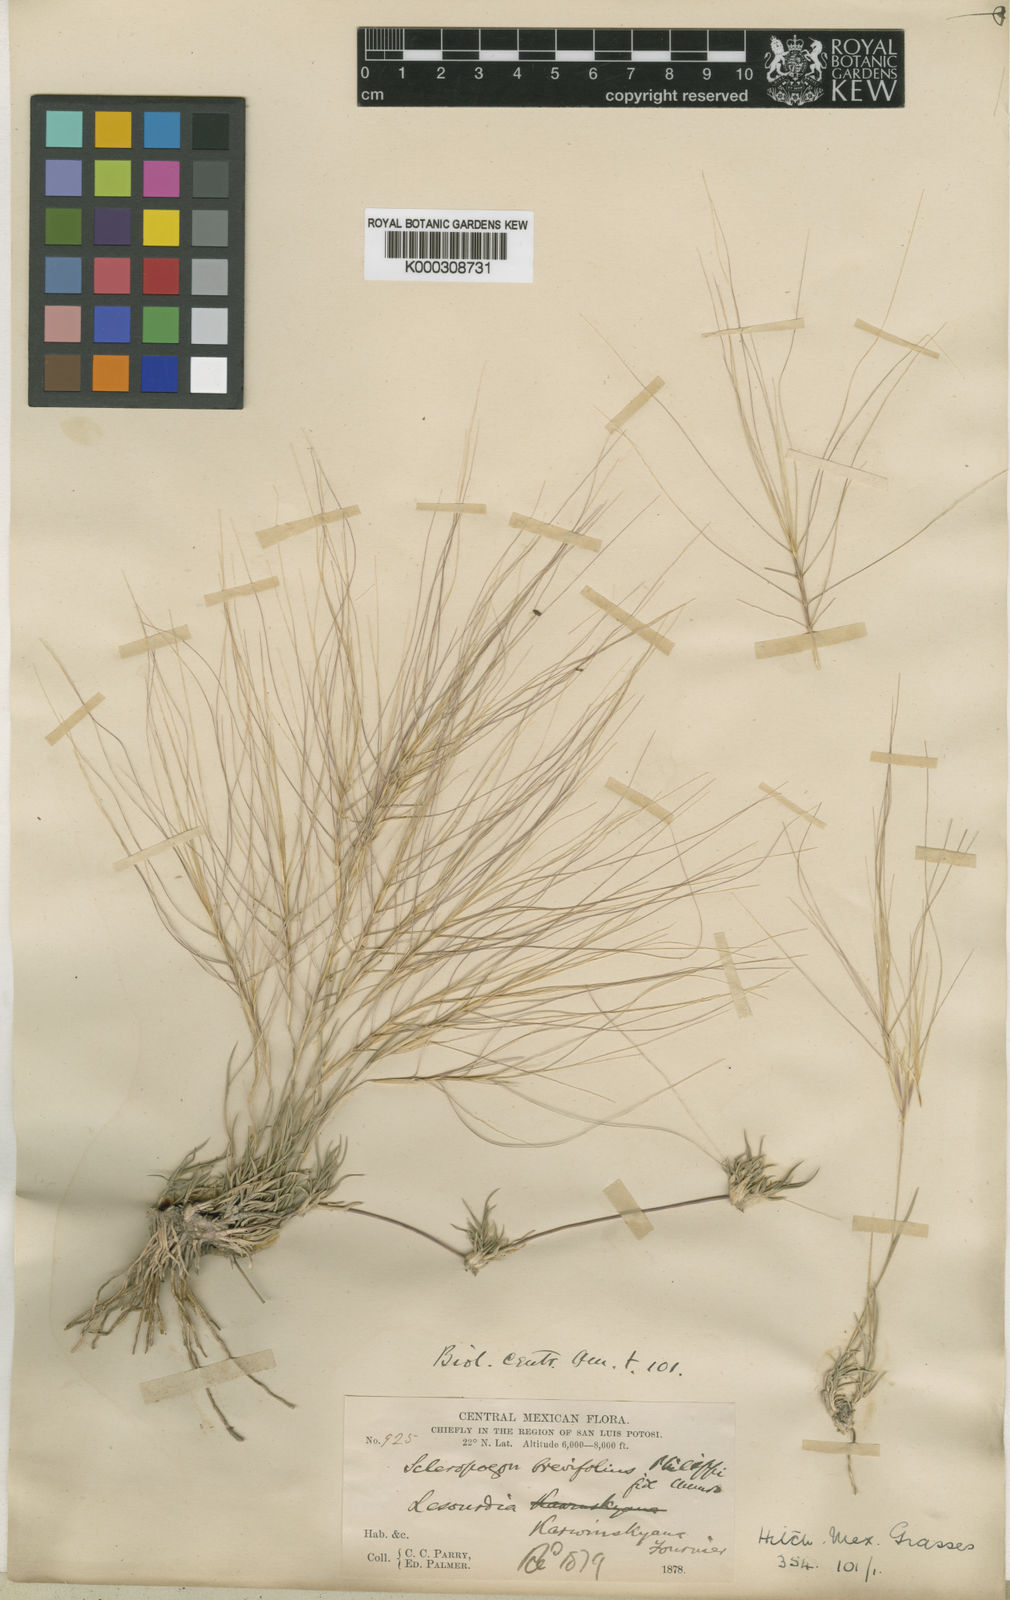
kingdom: Plantae
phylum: Tracheophyta
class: Liliopsida
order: Poales
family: Poaceae
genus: Scleropogon
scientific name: Scleropogon brevifolius
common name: Burro grass
